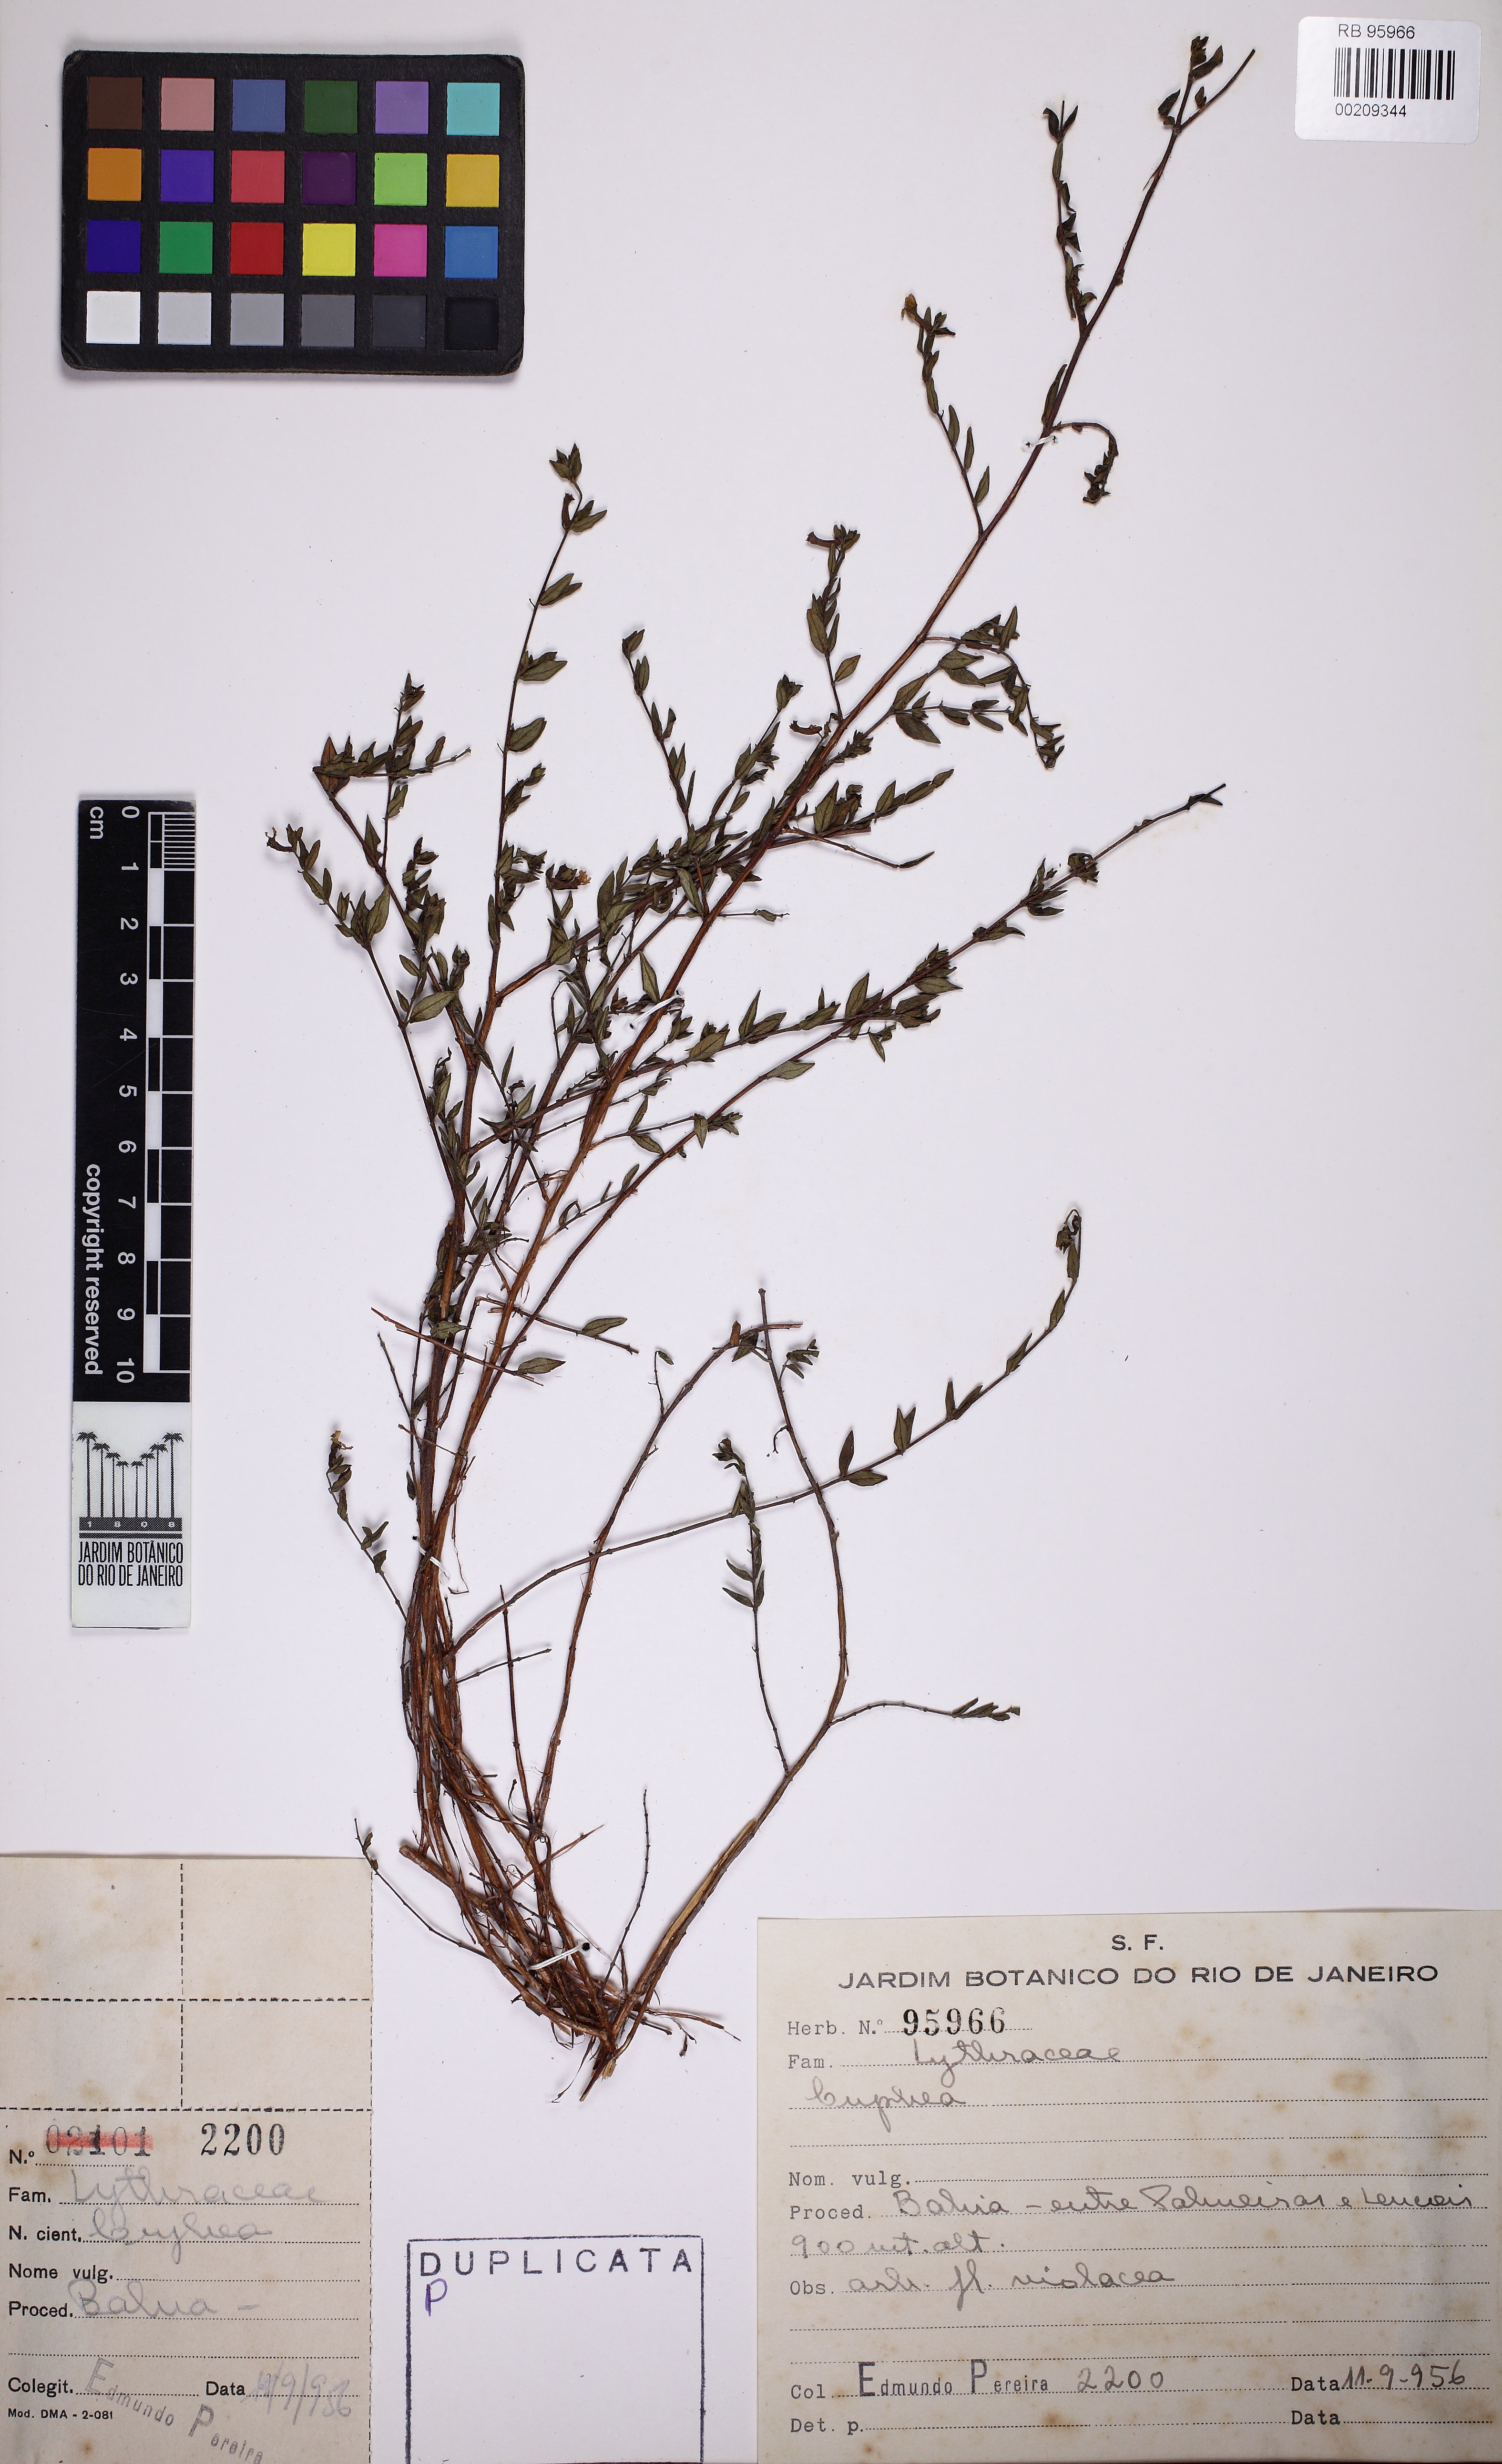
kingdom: Plantae
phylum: Tracheophyta
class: Magnoliopsida
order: Myrtales
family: Lythraceae
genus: Cuphea
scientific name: Cuphea
